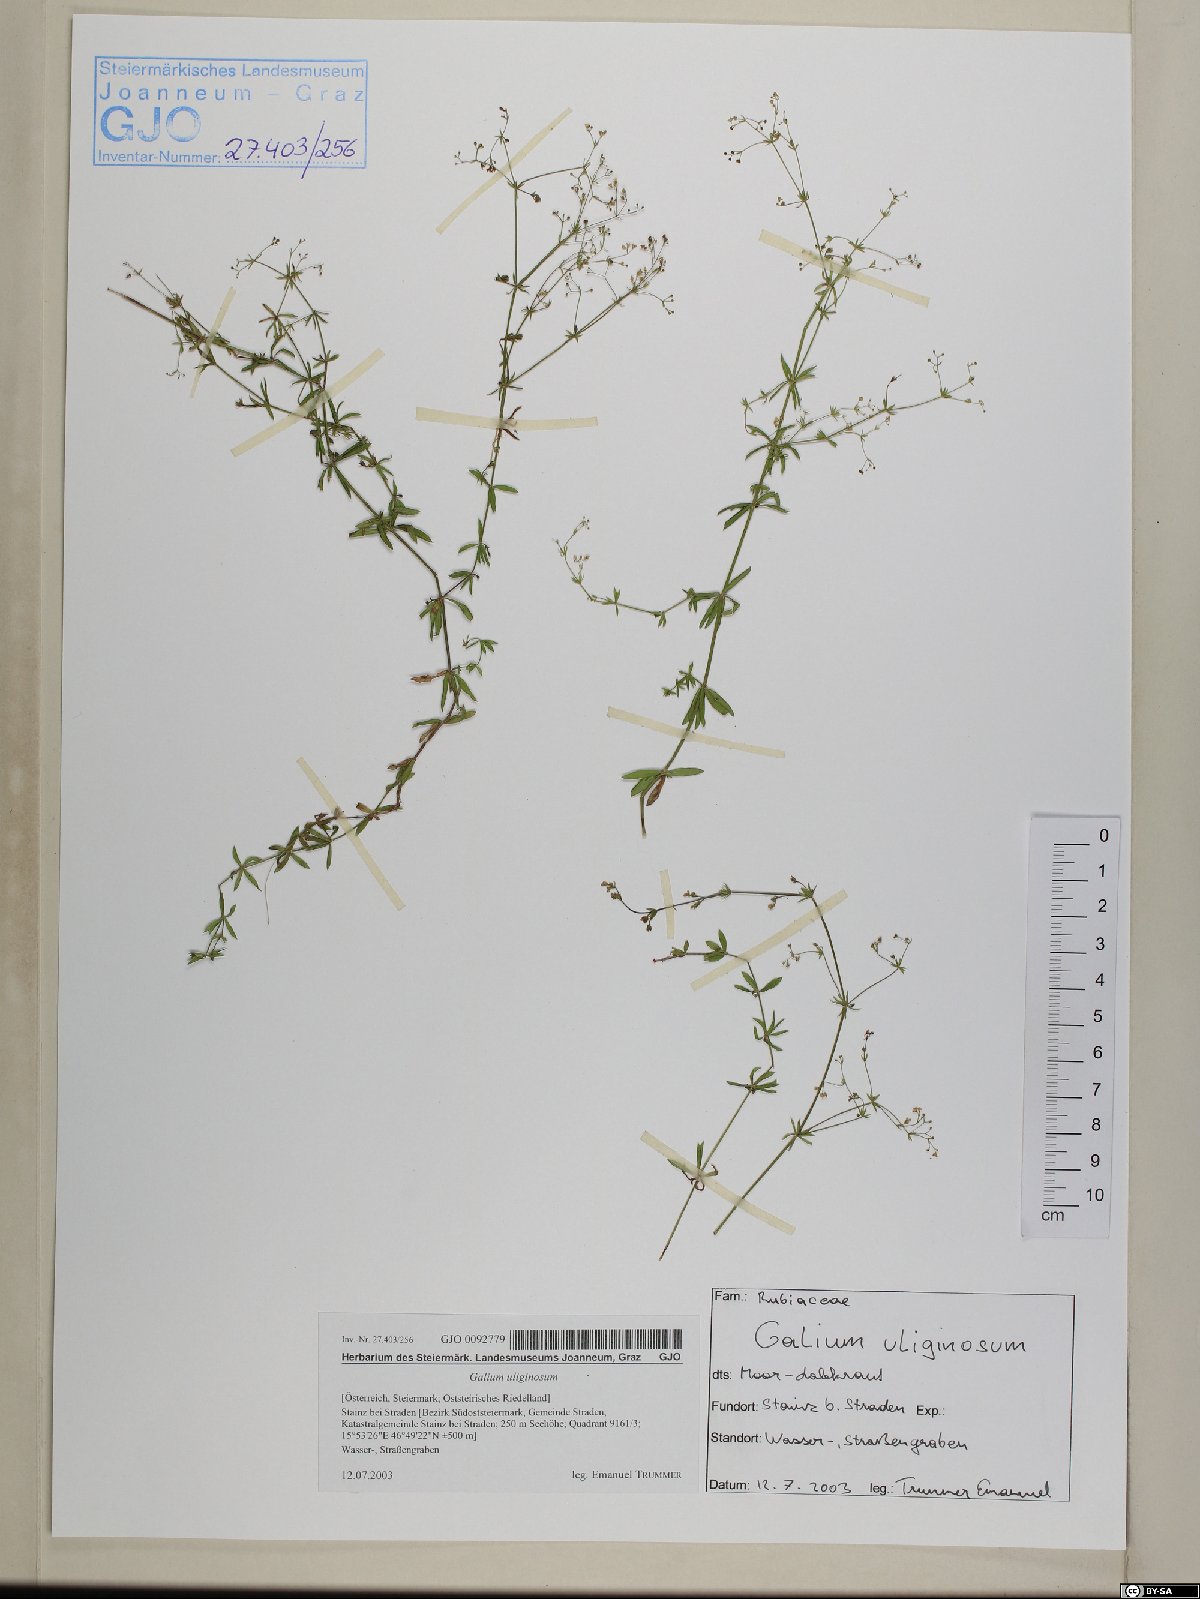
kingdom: Plantae
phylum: Tracheophyta
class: Magnoliopsida
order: Gentianales
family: Rubiaceae
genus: Galium
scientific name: Galium uliginosum
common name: Fen bedstraw
